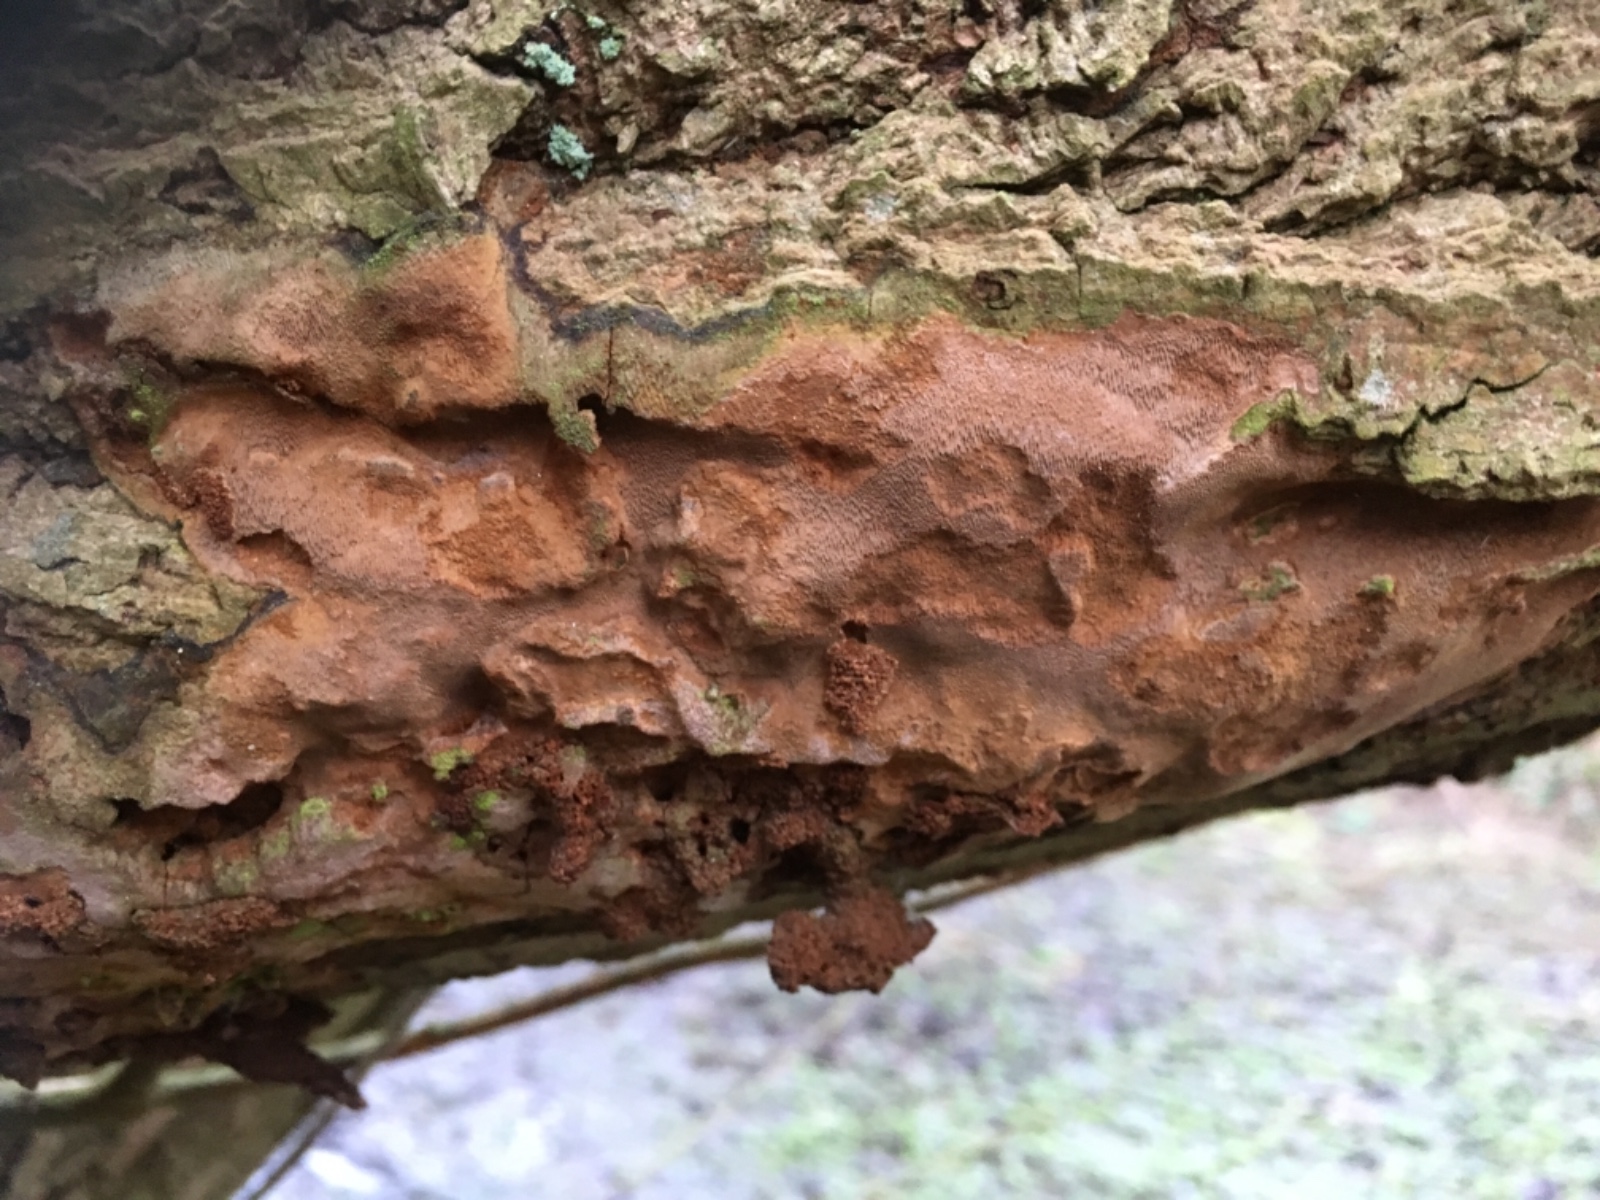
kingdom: Fungi
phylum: Basidiomycota
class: Agaricomycetes
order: Hymenochaetales
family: Hymenochaetaceae
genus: Fuscoporia
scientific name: Fuscoporia ferrea
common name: skorpe-ildporesvamp
